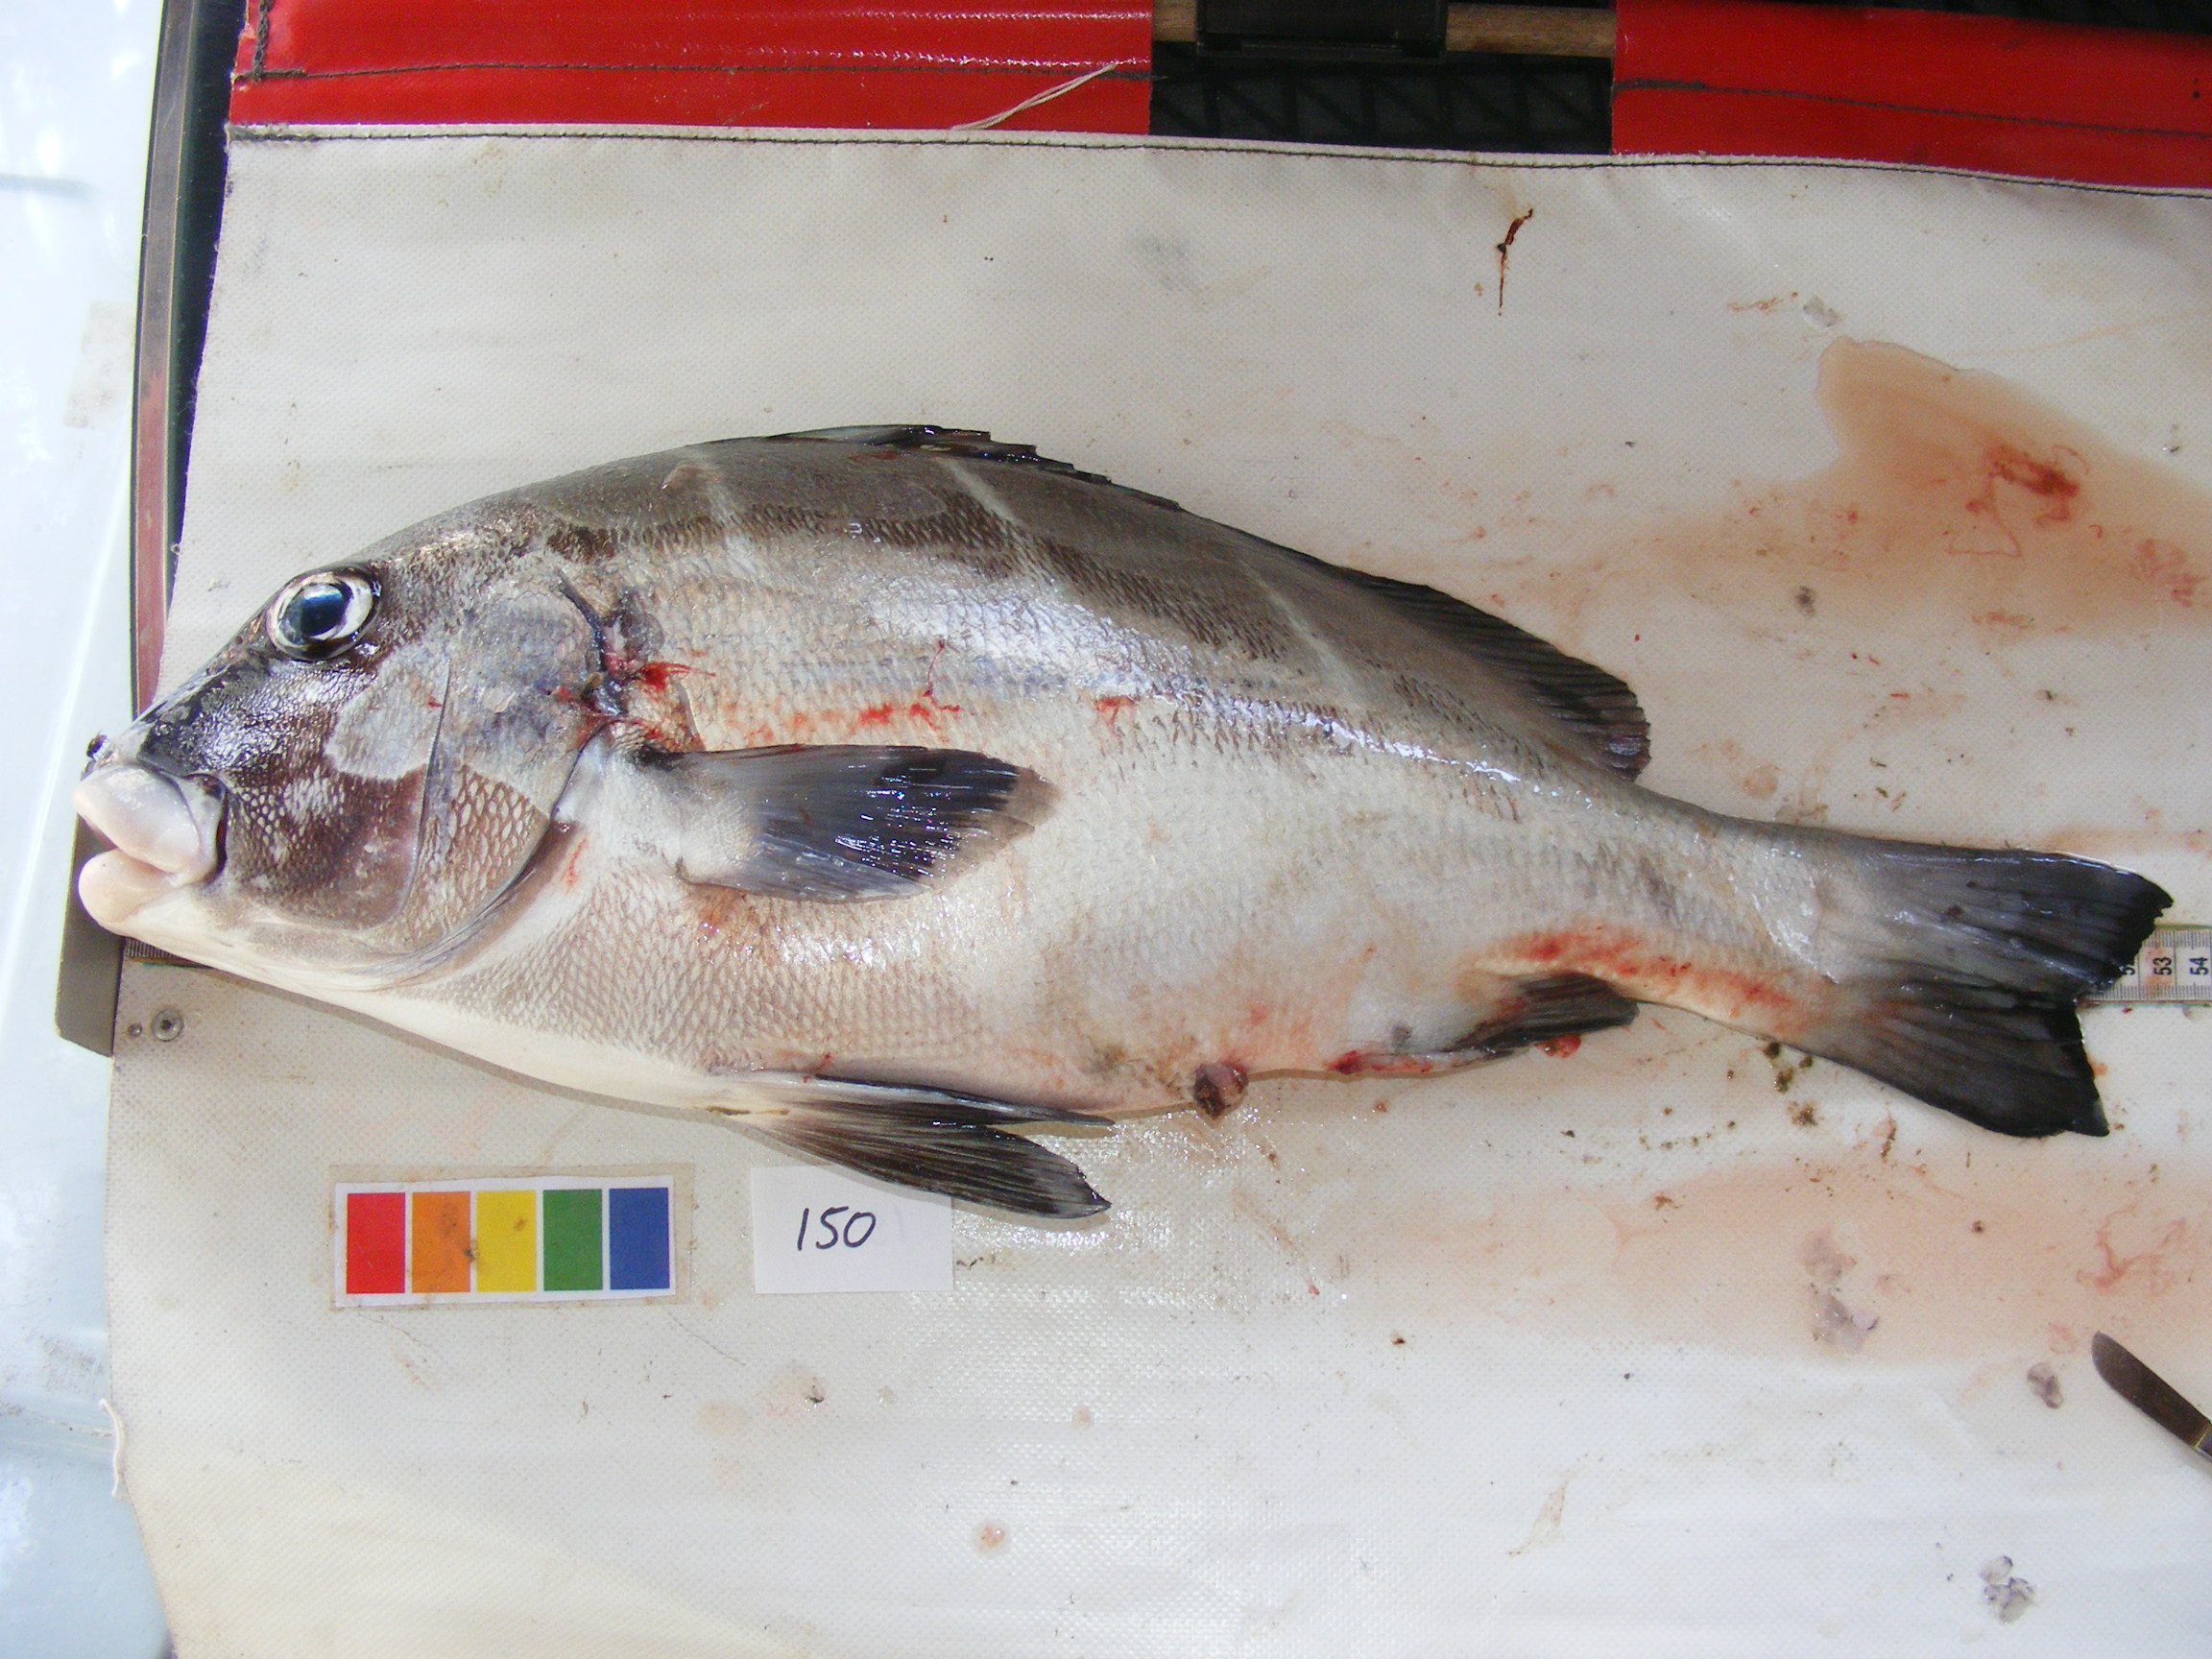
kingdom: Animalia
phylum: Chordata
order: Perciformes
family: Haemulidae
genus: Plectorhinchus
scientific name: Plectorhinchus playfairi
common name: Whitebarred rubberlip
